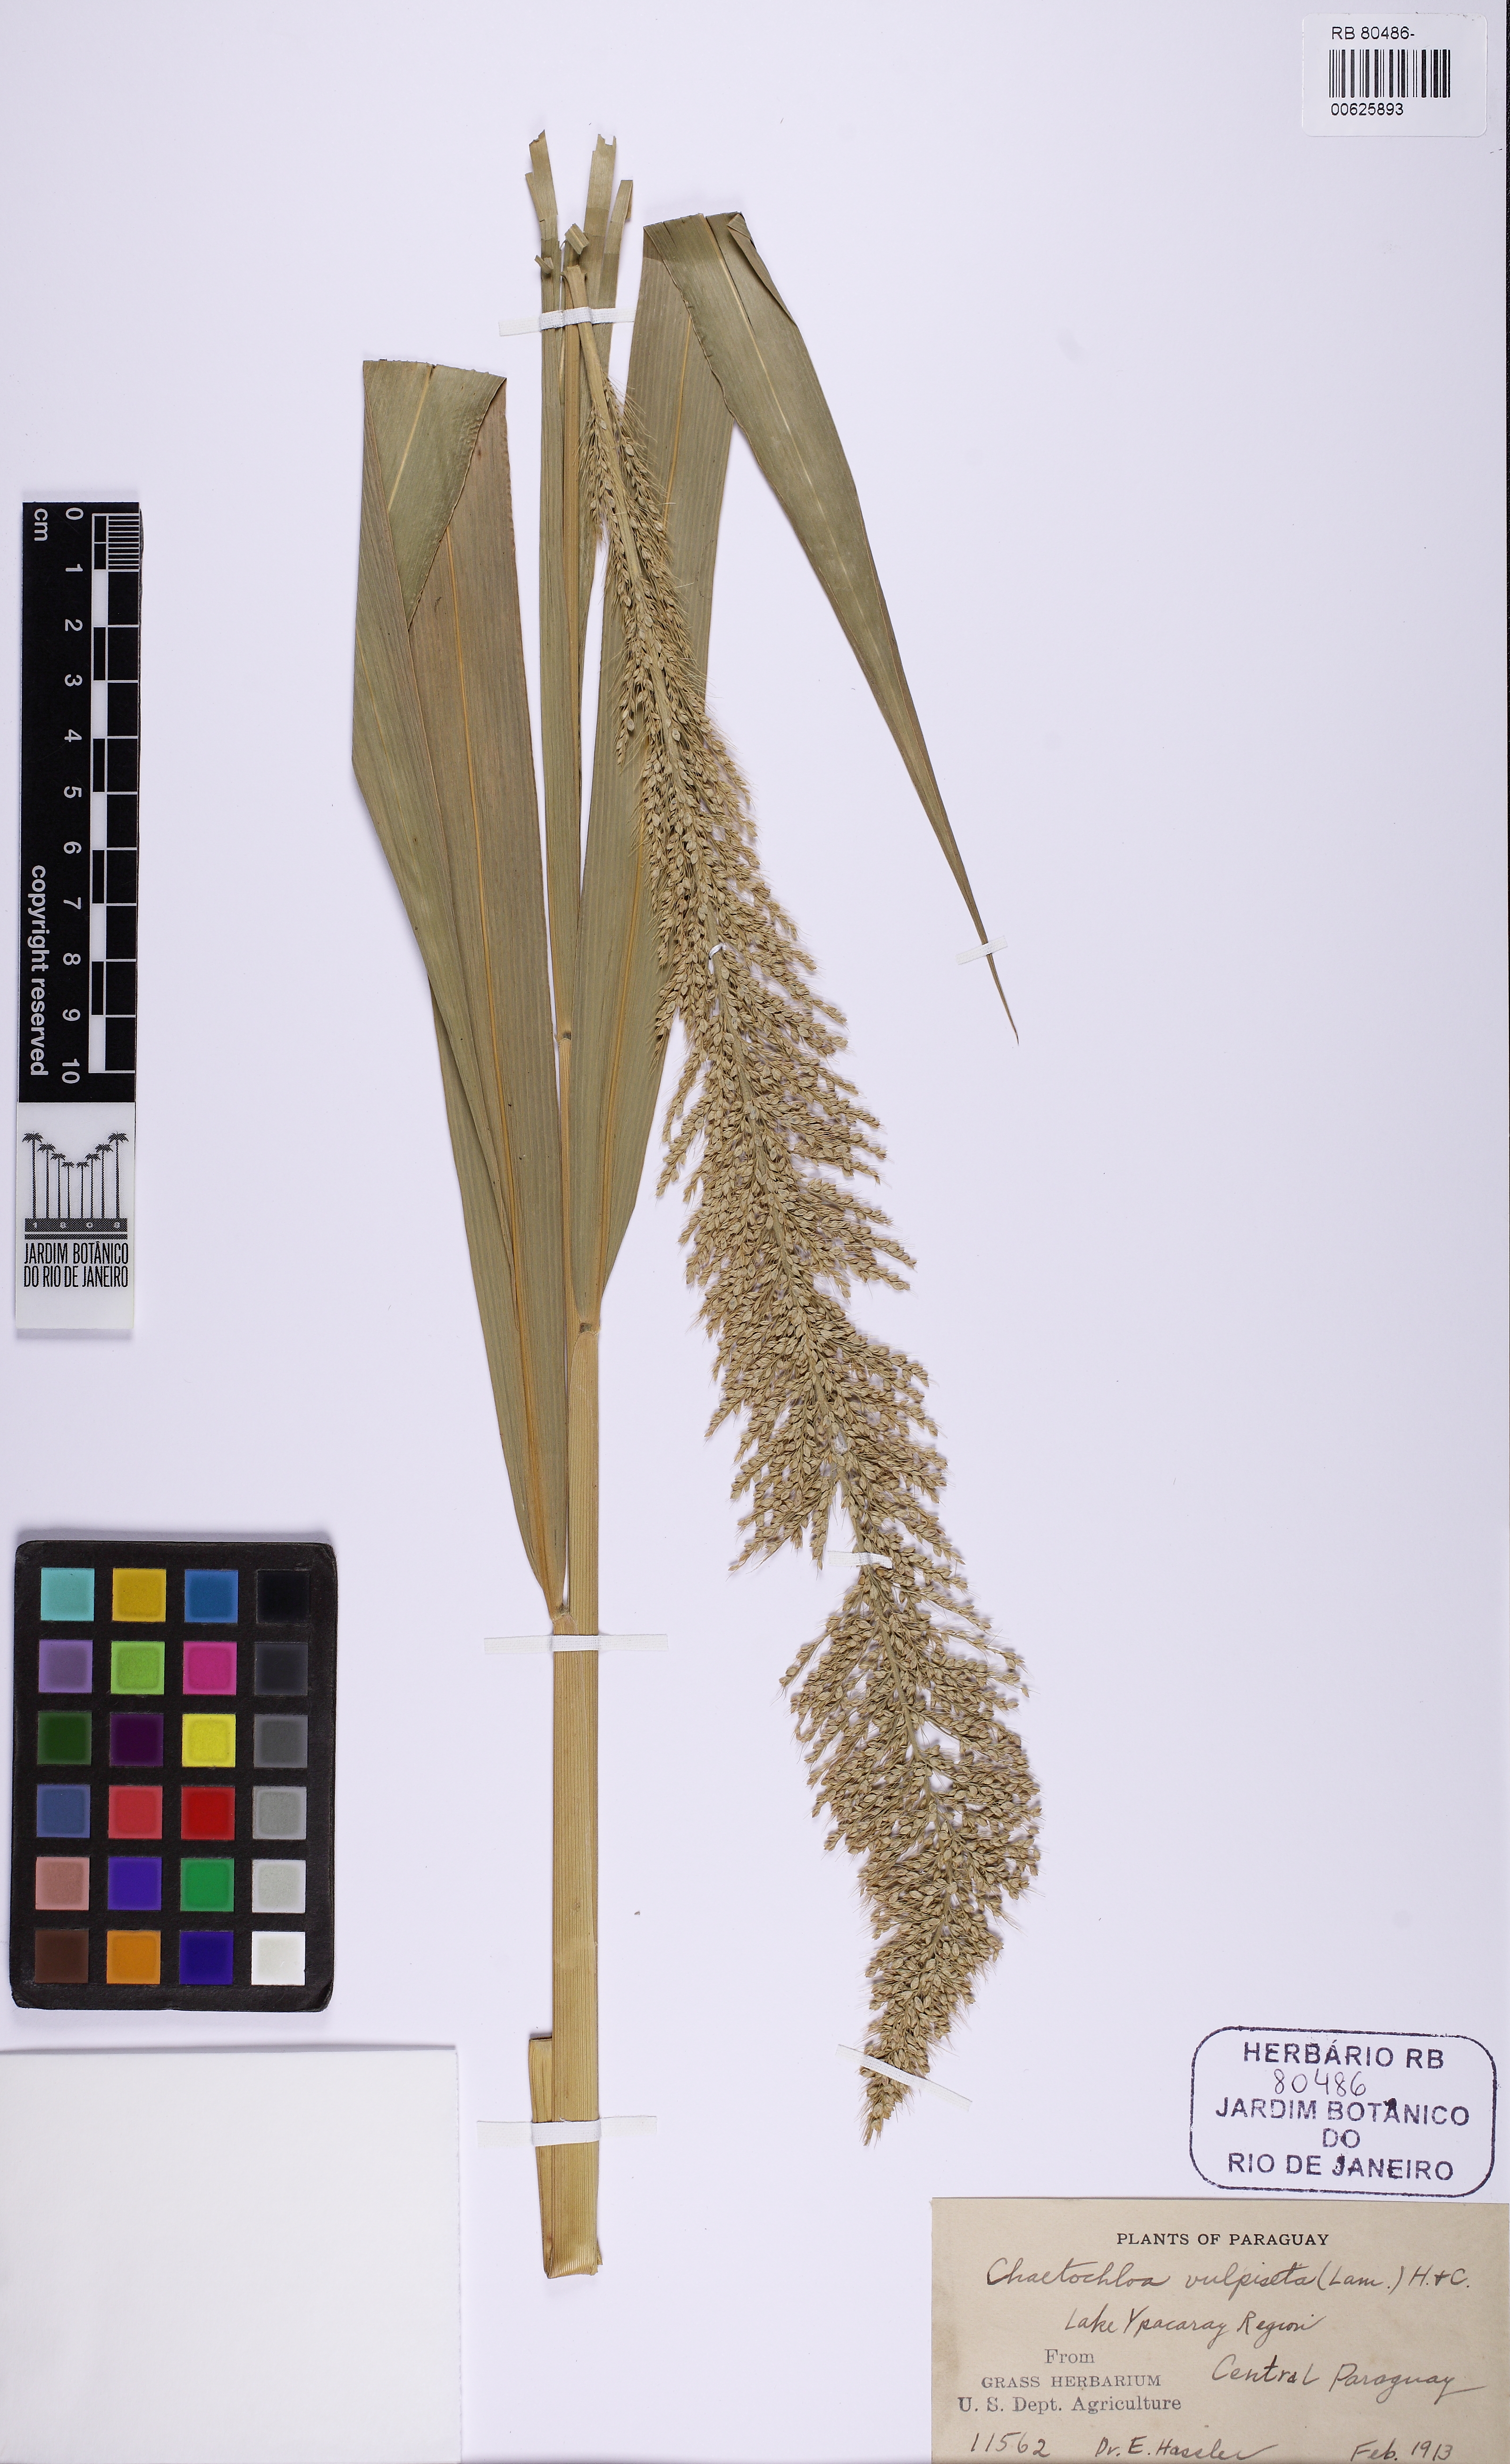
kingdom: Plantae
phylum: Tracheophyta
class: Liliopsida
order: Poales
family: Poaceae
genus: Setaria
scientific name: Setaria vulpiseta
